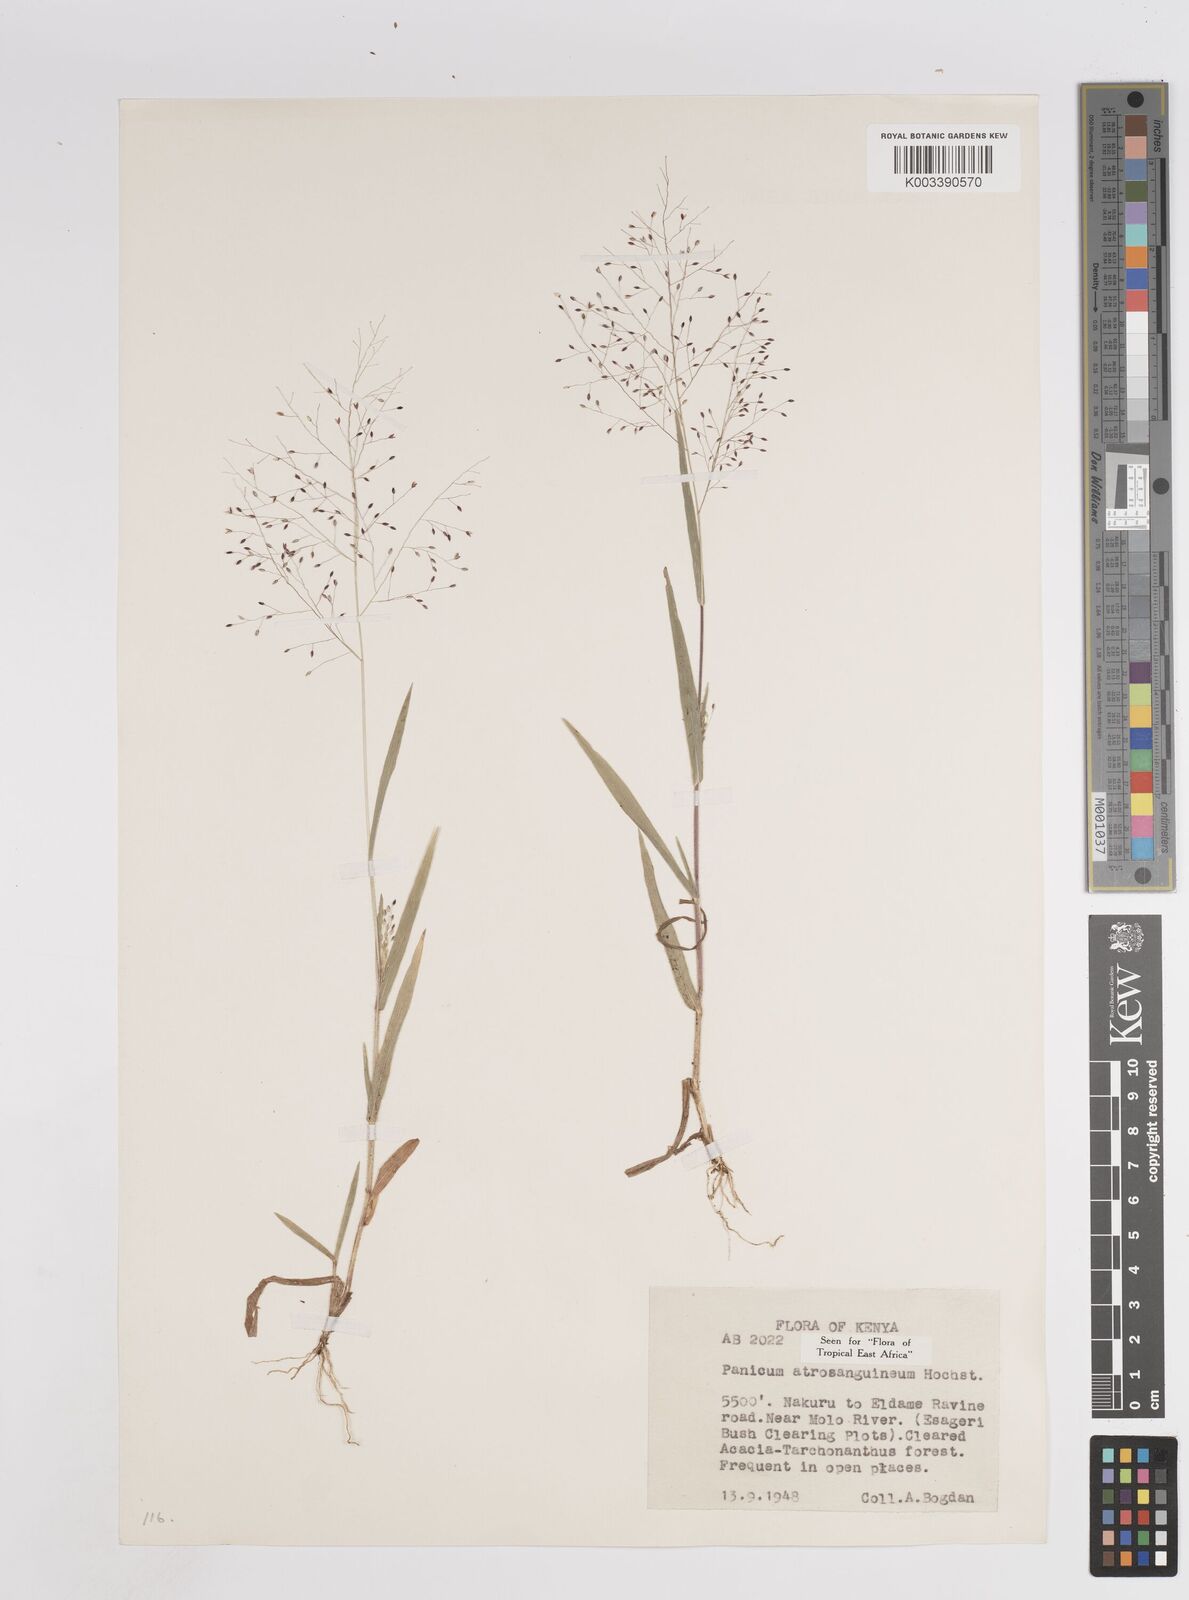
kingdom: Plantae
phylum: Tracheophyta
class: Liliopsida
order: Poales
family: Poaceae
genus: Panicum
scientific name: Panicum atrosanguineum
